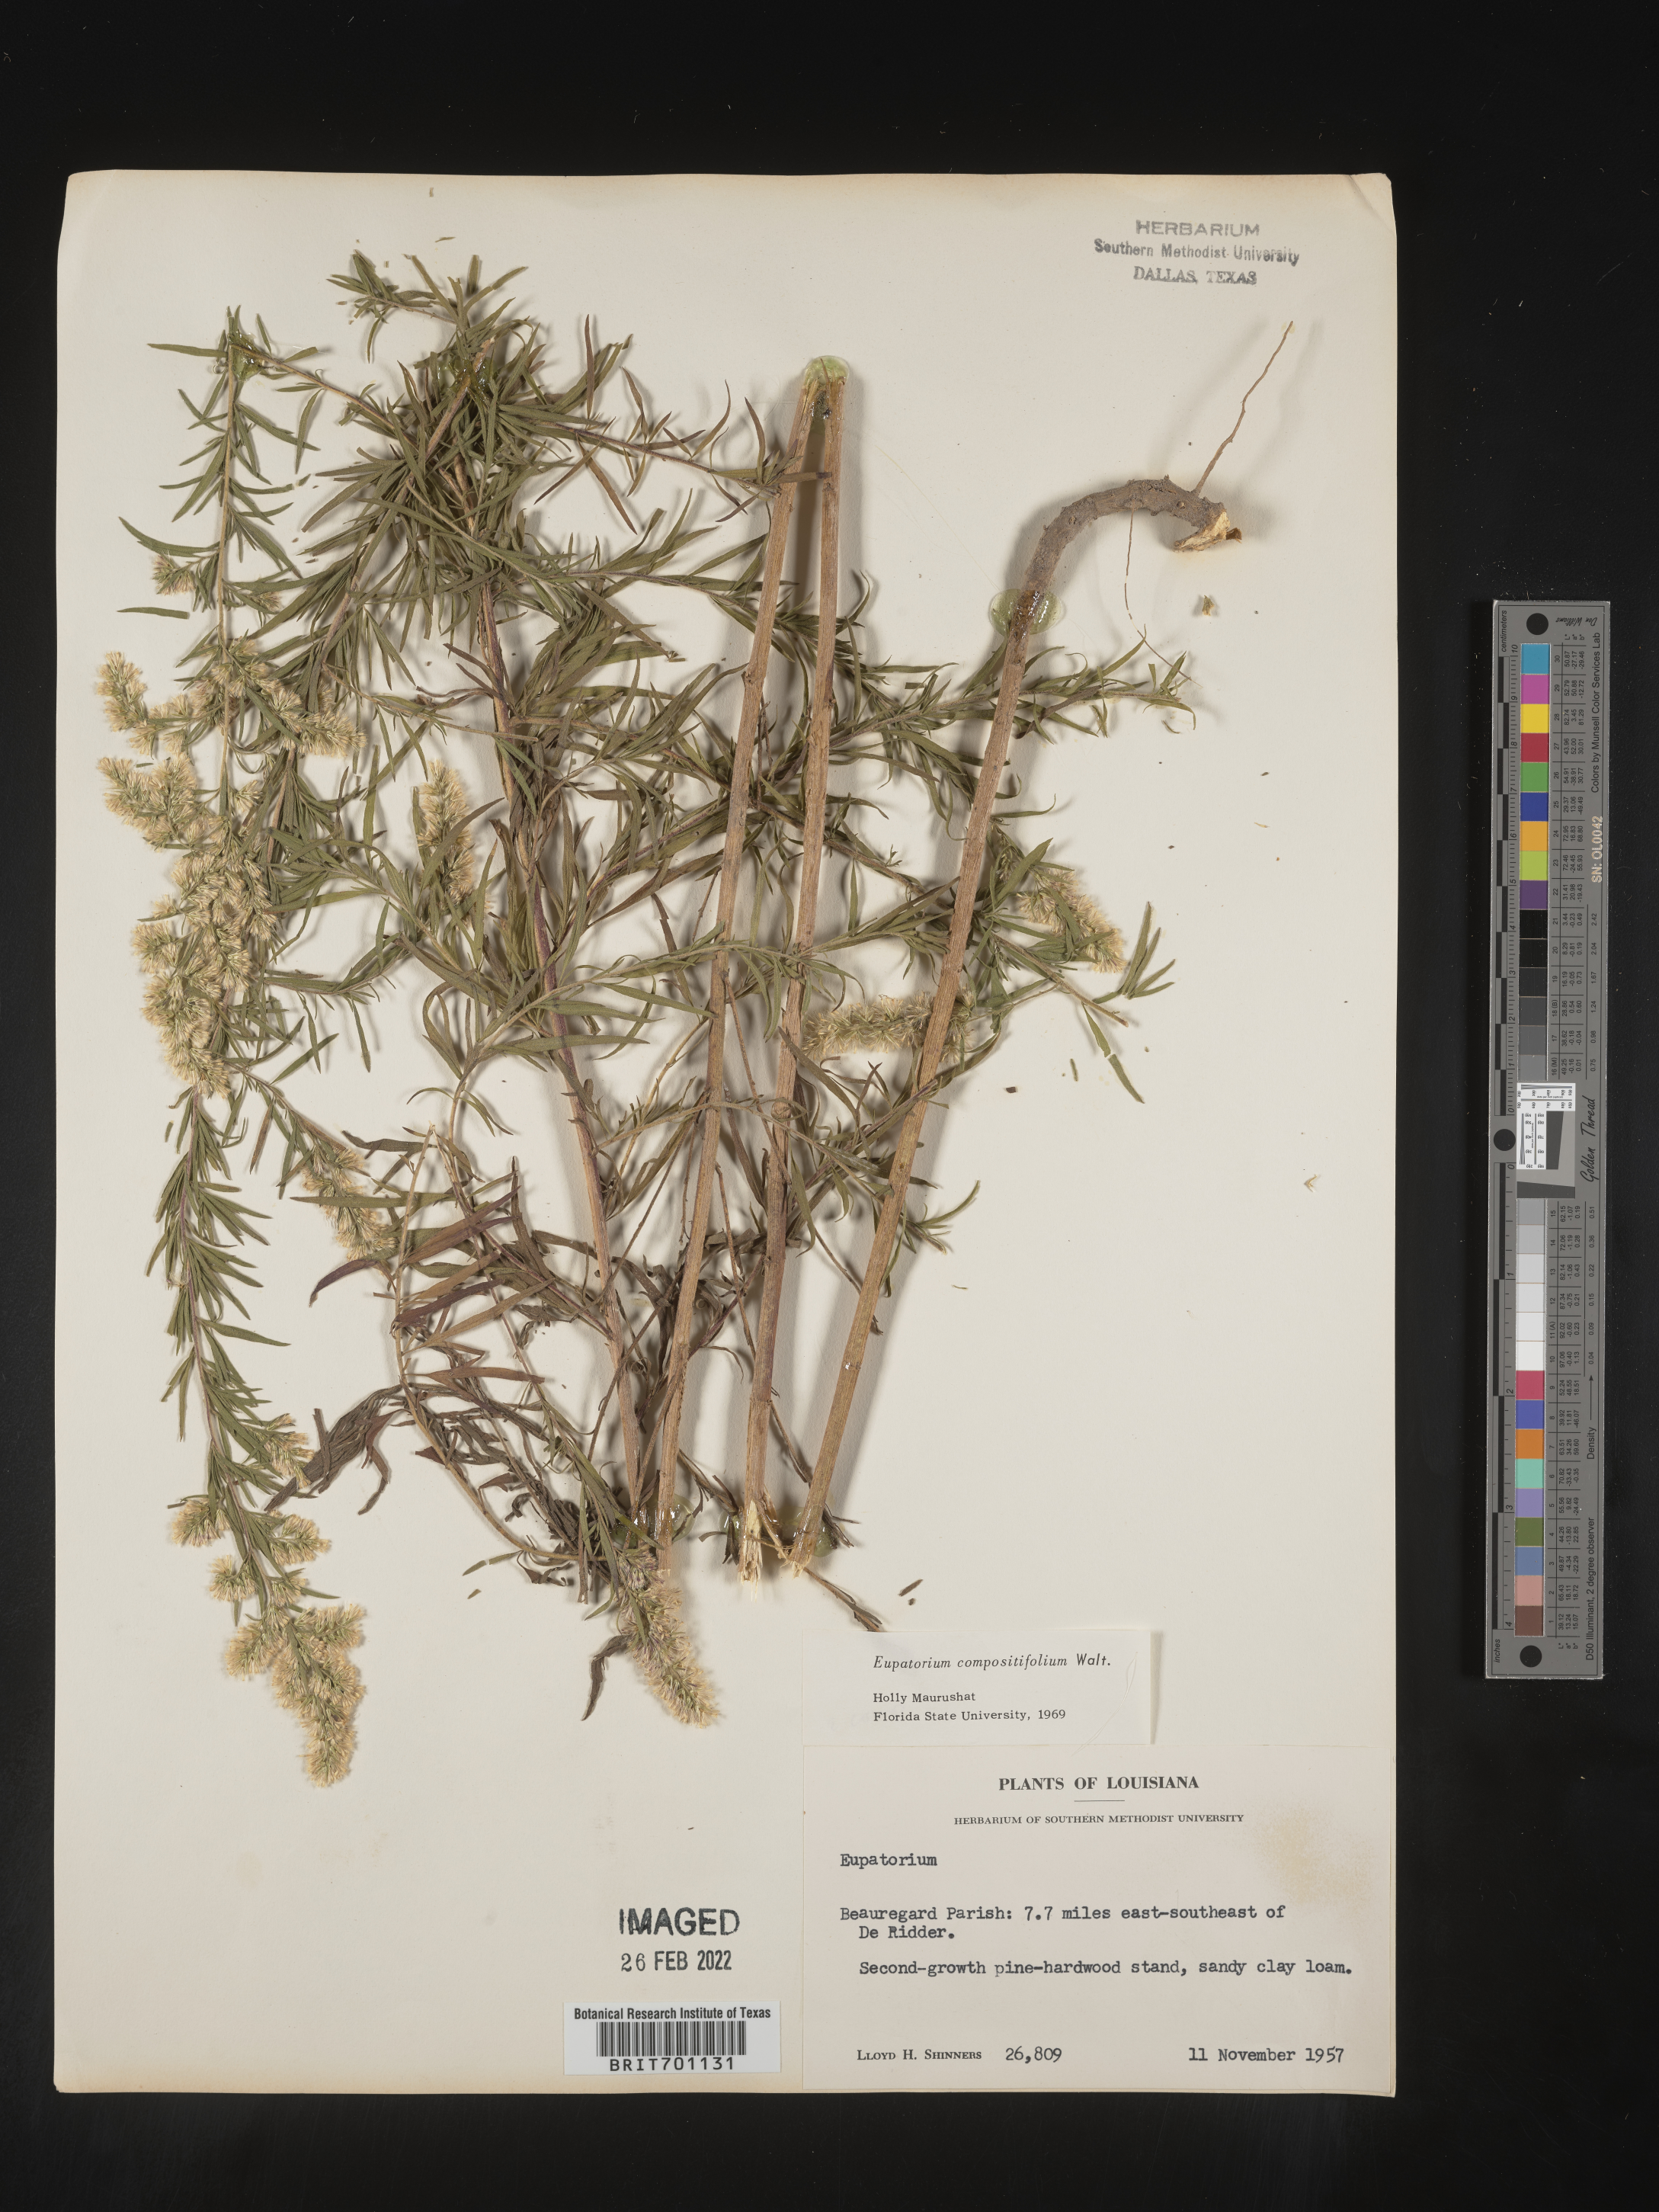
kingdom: Plantae
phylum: Tracheophyta
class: Magnoliopsida
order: Asterales
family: Asteraceae
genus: Eupatorium
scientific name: Eupatorium compositifolium
